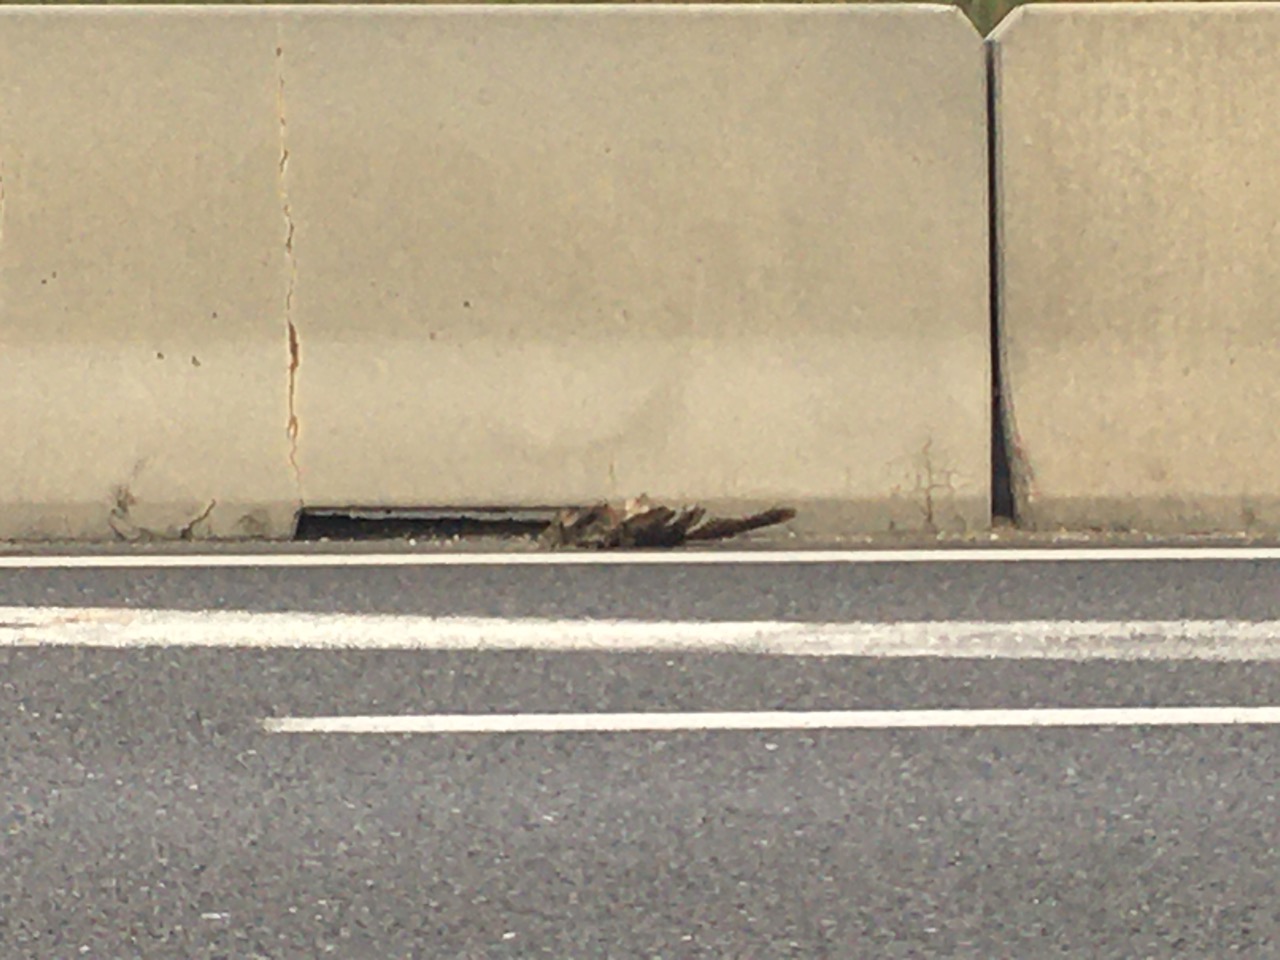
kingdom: Animalia
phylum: Chordata
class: Aves
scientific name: Aves
